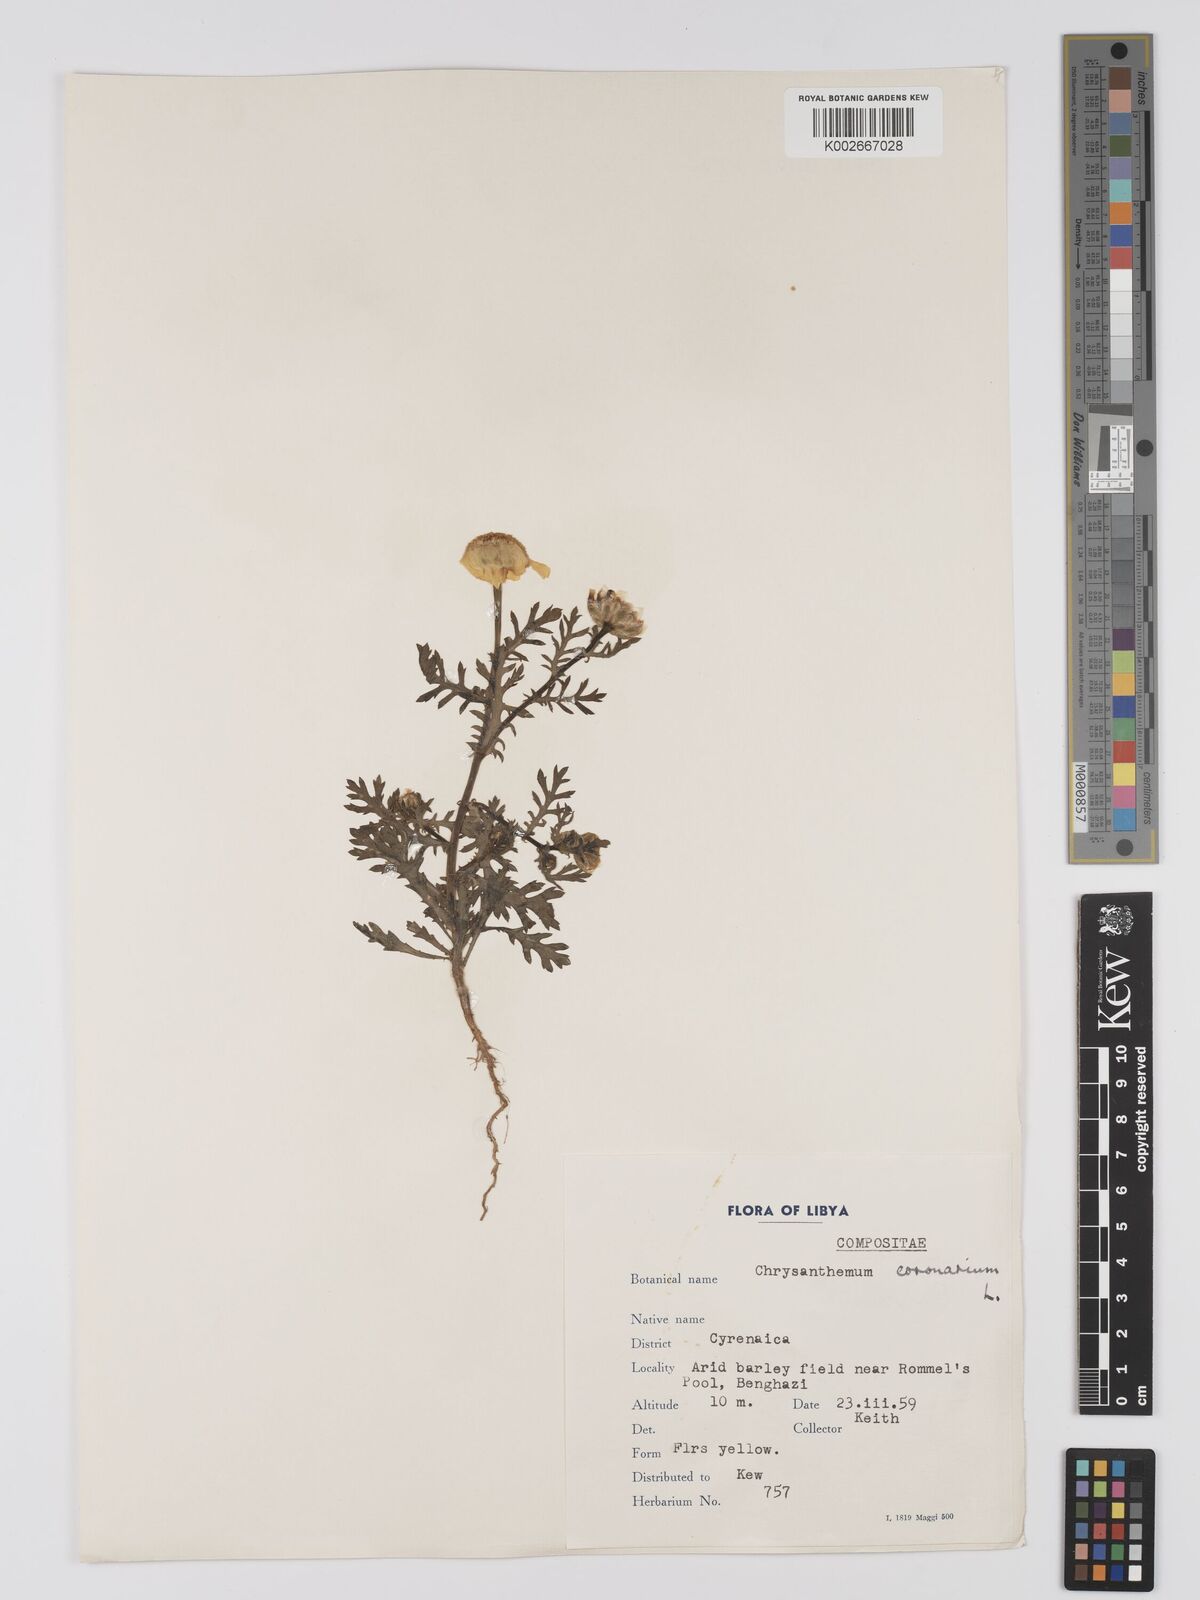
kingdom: Plantae
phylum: Tracheophyta
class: Magnoliopsida
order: Asterales
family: Asteraceae
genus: Glebionis
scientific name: Glebionis coronaria
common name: Crowndaisy
